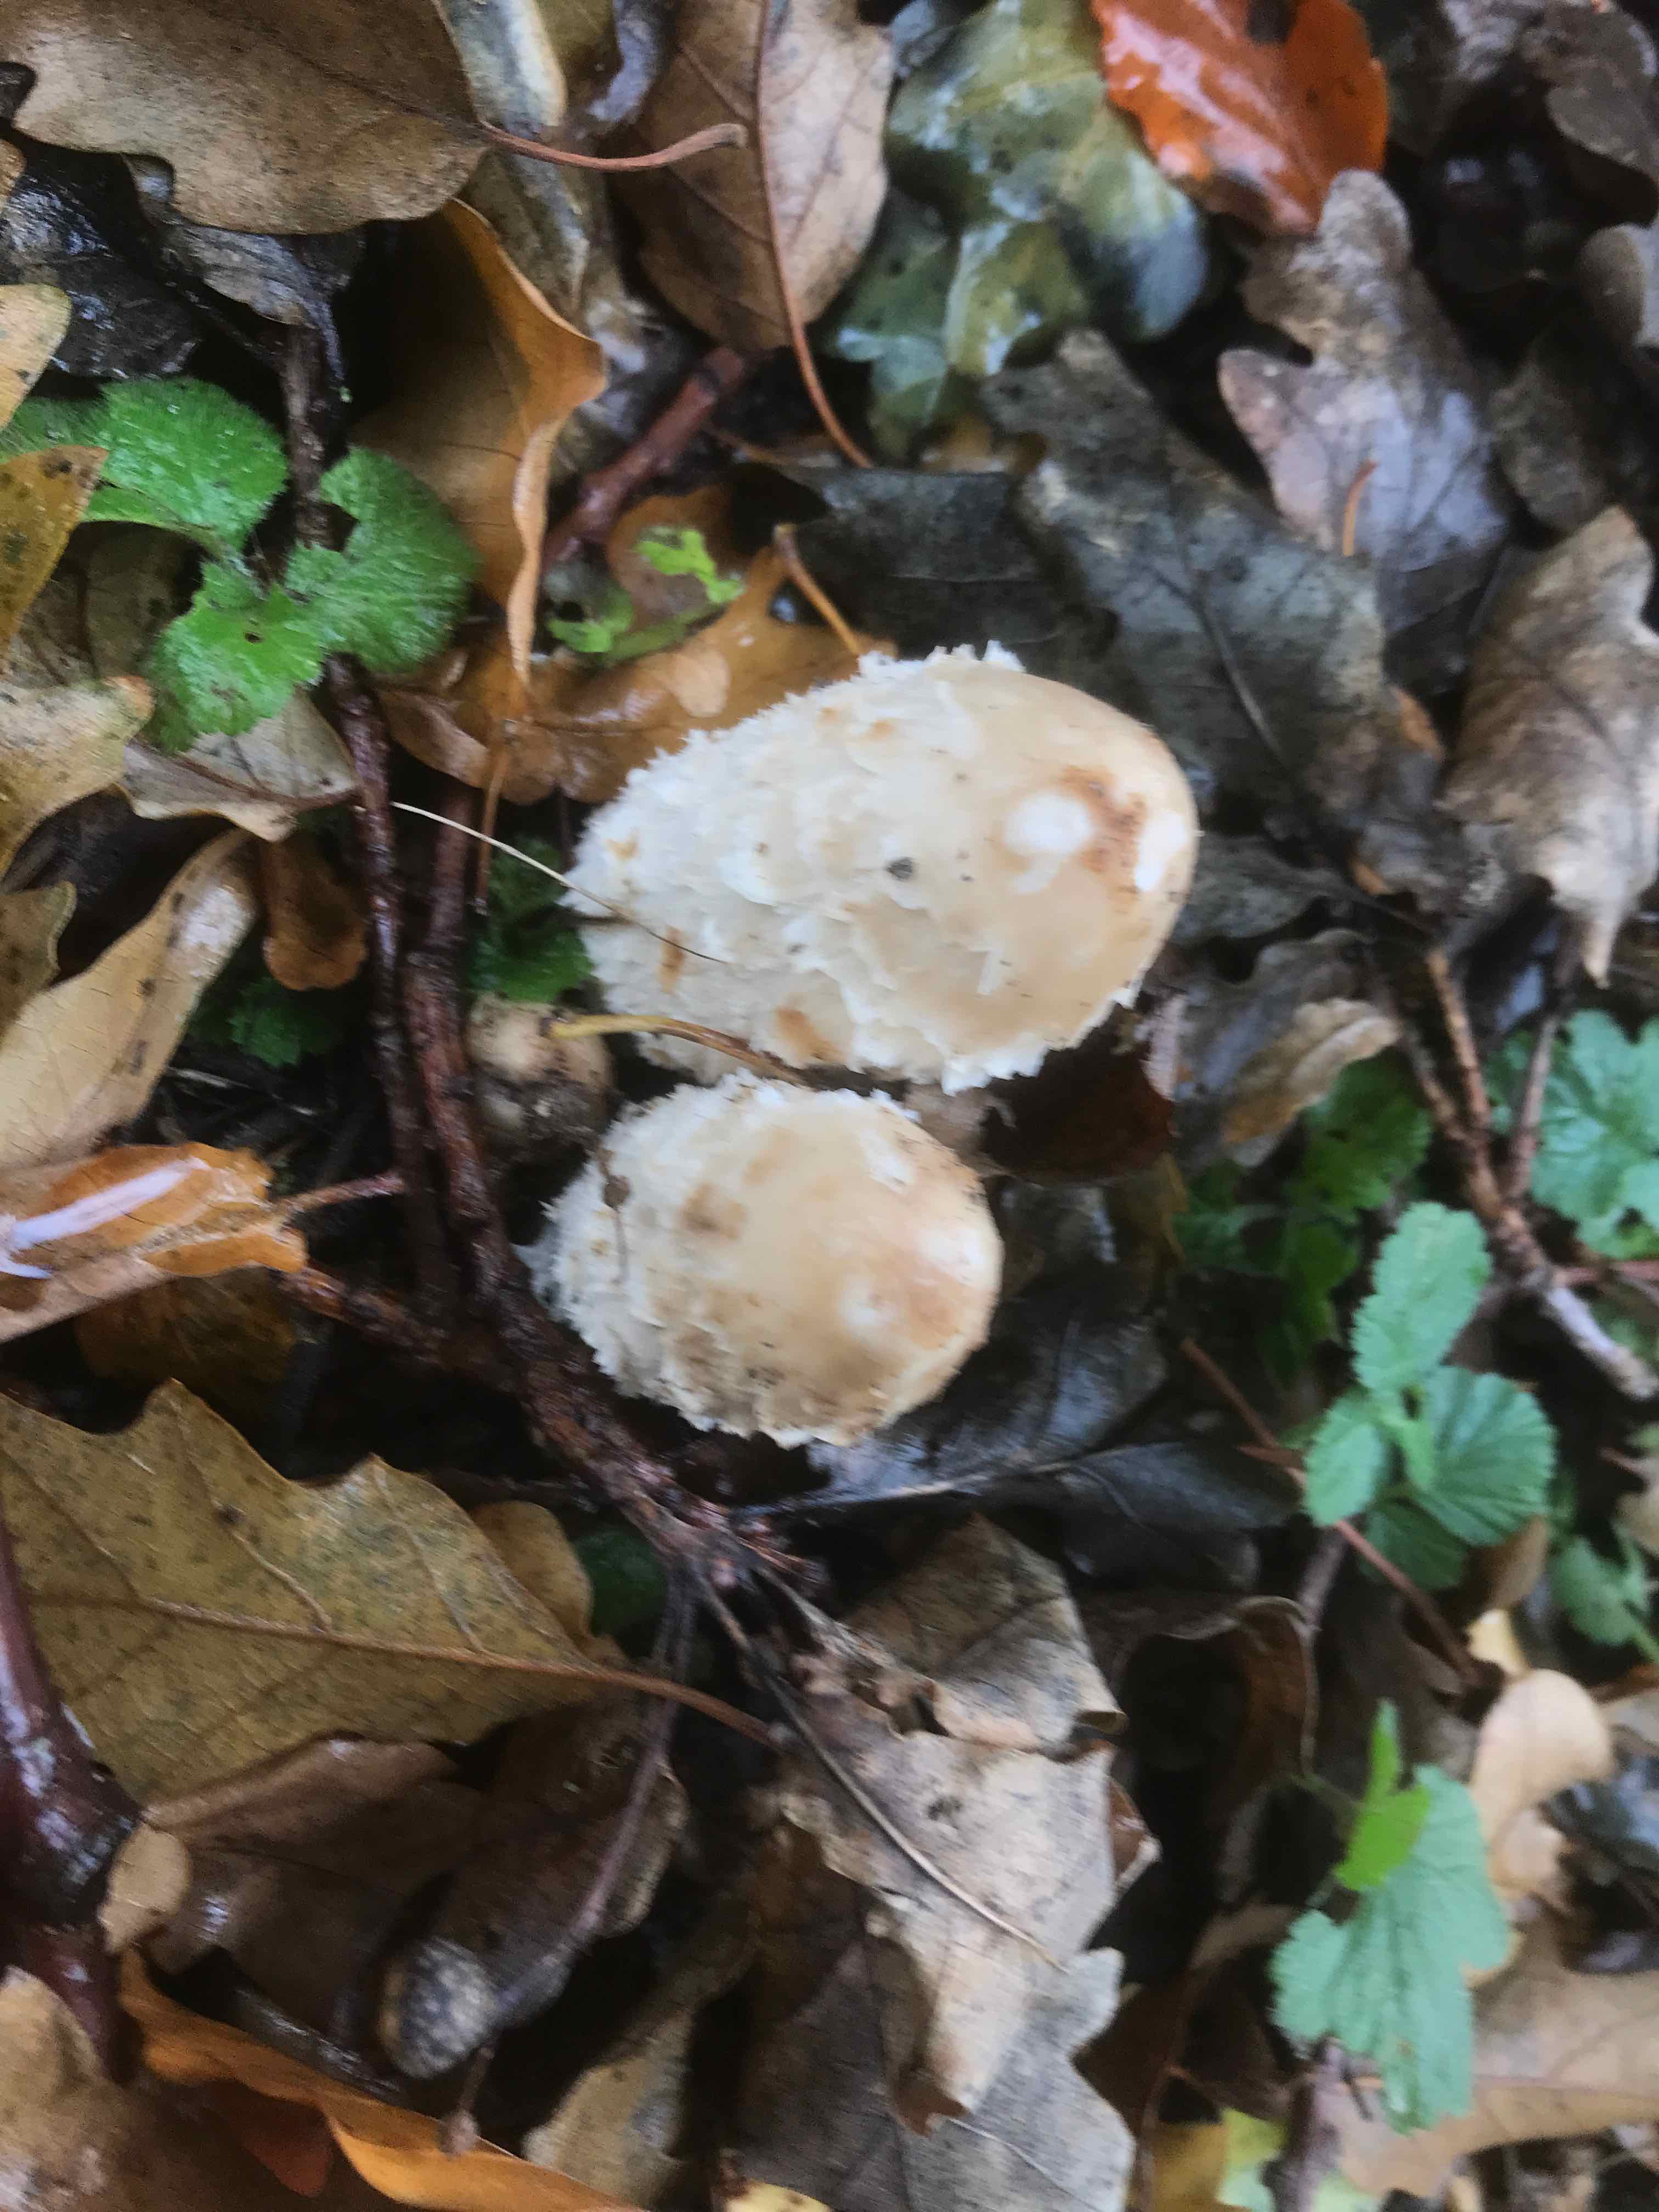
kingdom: Fungi
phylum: Basidiomycota
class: Agaricomycetes
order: Agaricales
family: Agaricaceae
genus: Coprinus
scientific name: Coprinus comatus
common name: stor parykhat
